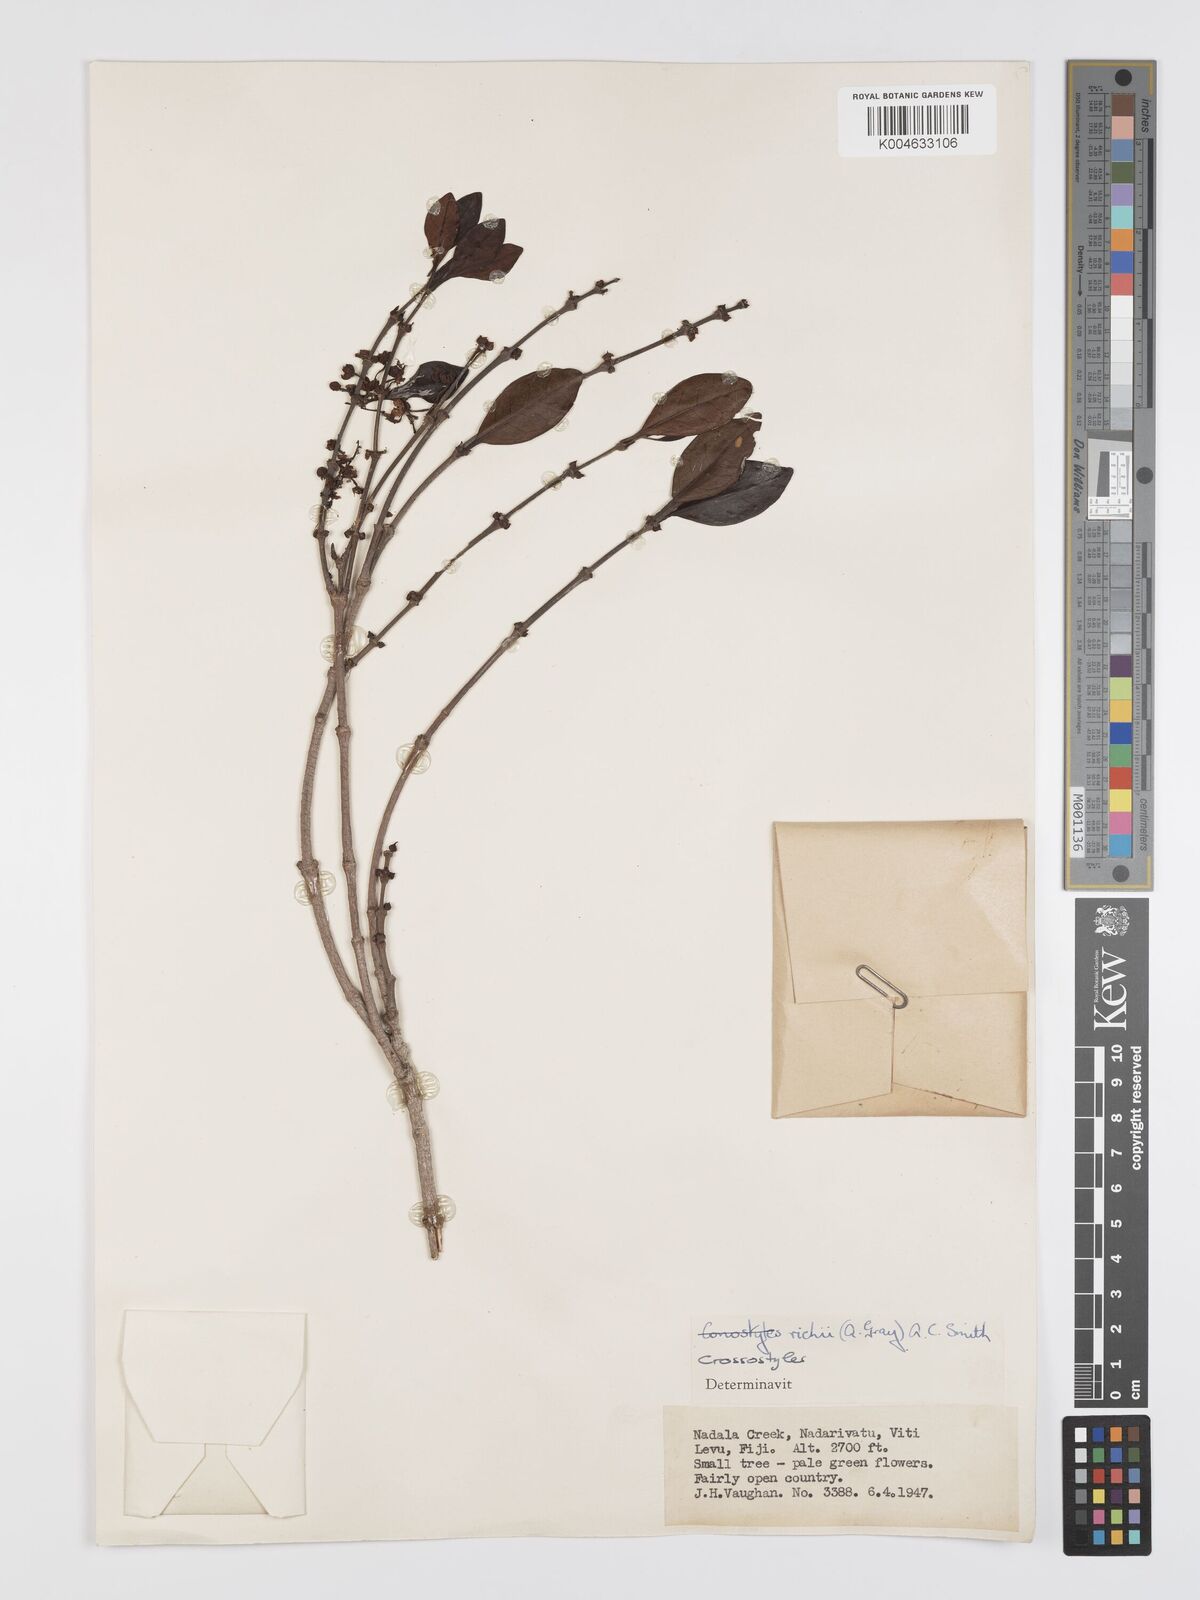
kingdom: Plantae
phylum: Tracheophyta
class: Magnoliopsida
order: Malpighiales
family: Rhizophoraceae
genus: Crossostylis
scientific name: Crossostylis richii
